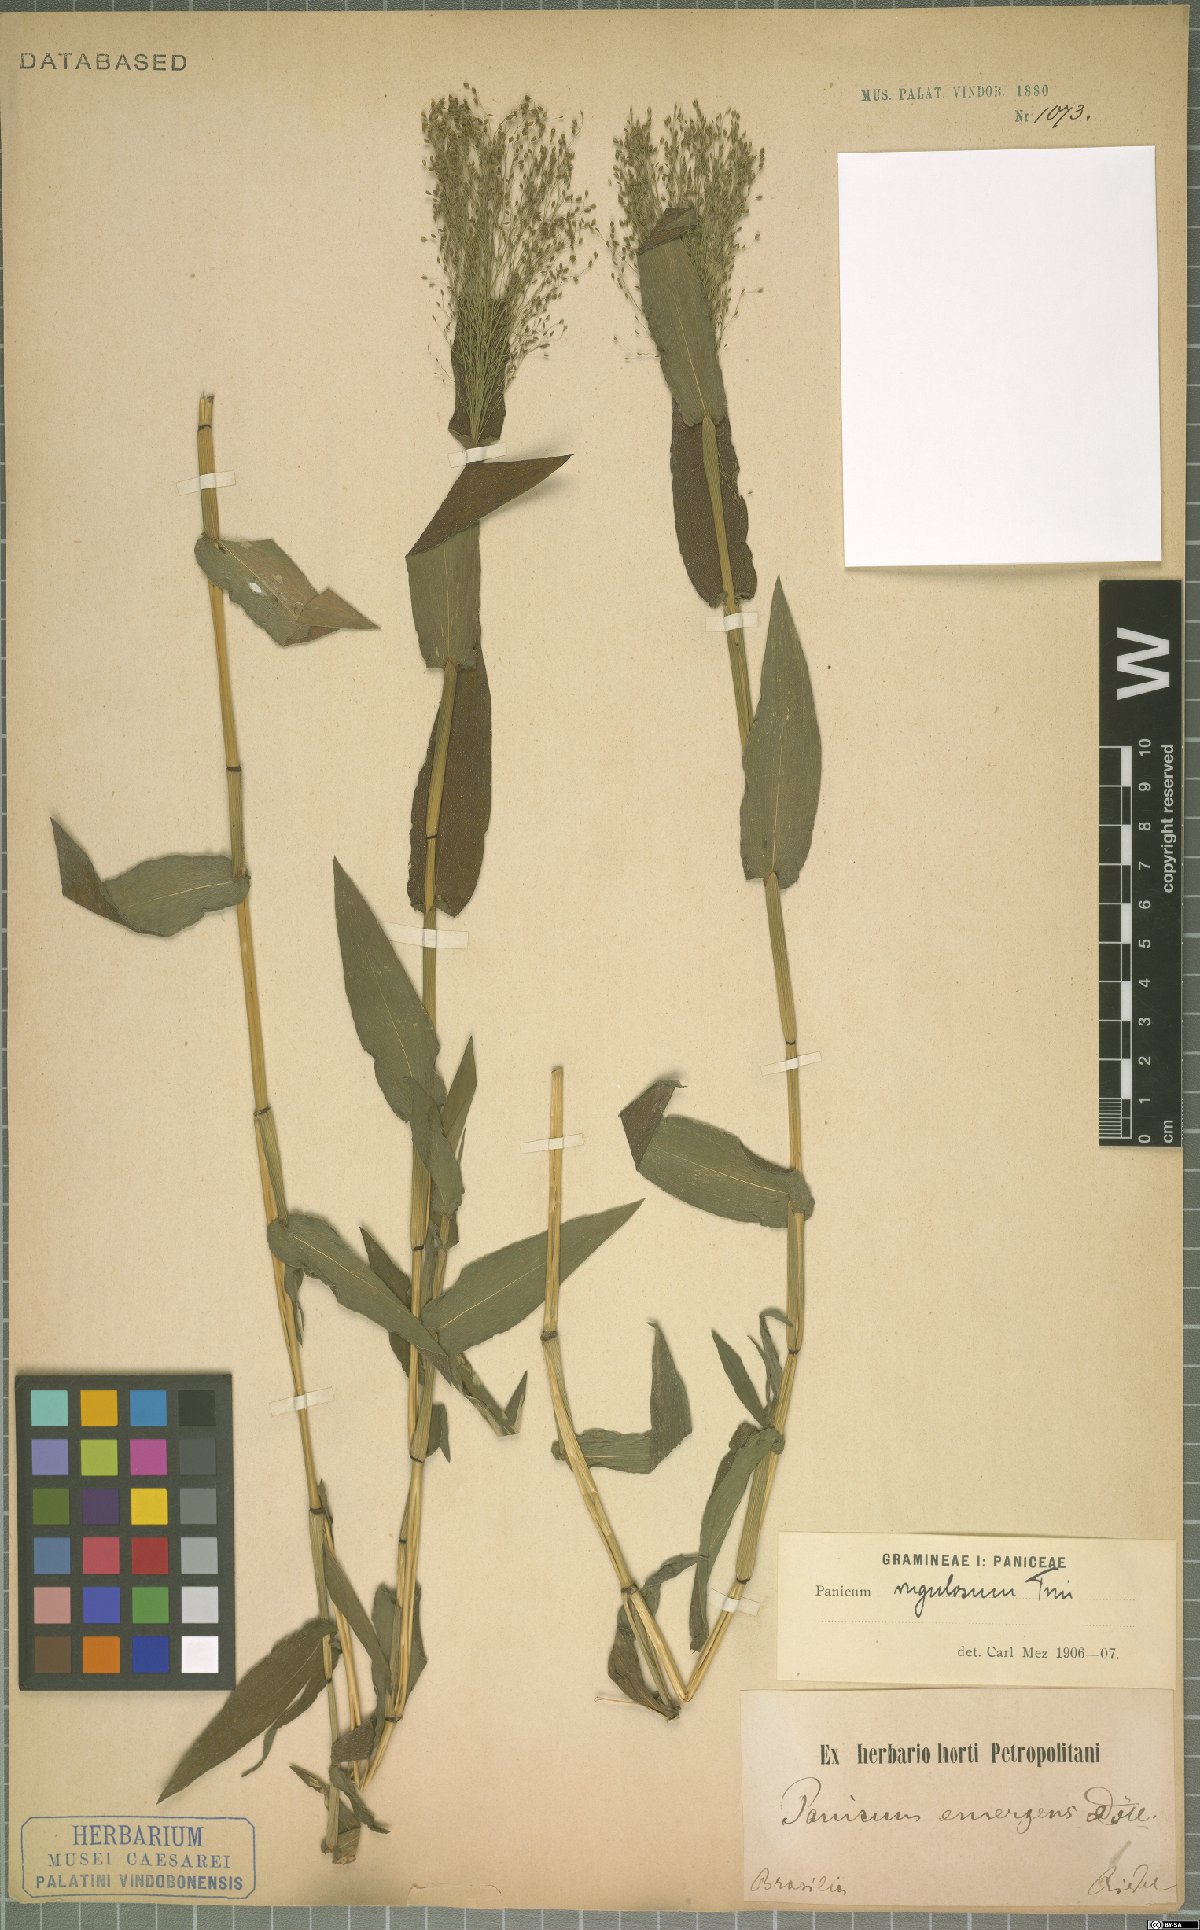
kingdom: Plantae
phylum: Tracheophyta
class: Liliopsida
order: Poales
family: Poaceae
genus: Panicum
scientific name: Panicum millegrana
